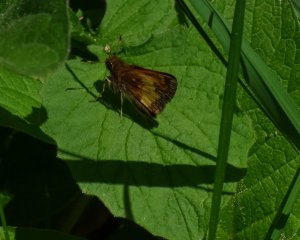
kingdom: Animalia
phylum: Arthropoda
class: Insecta
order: Lepidoptera
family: Hesperiidae
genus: Lon
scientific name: Lon hobomok
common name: Hobomok Skipper
